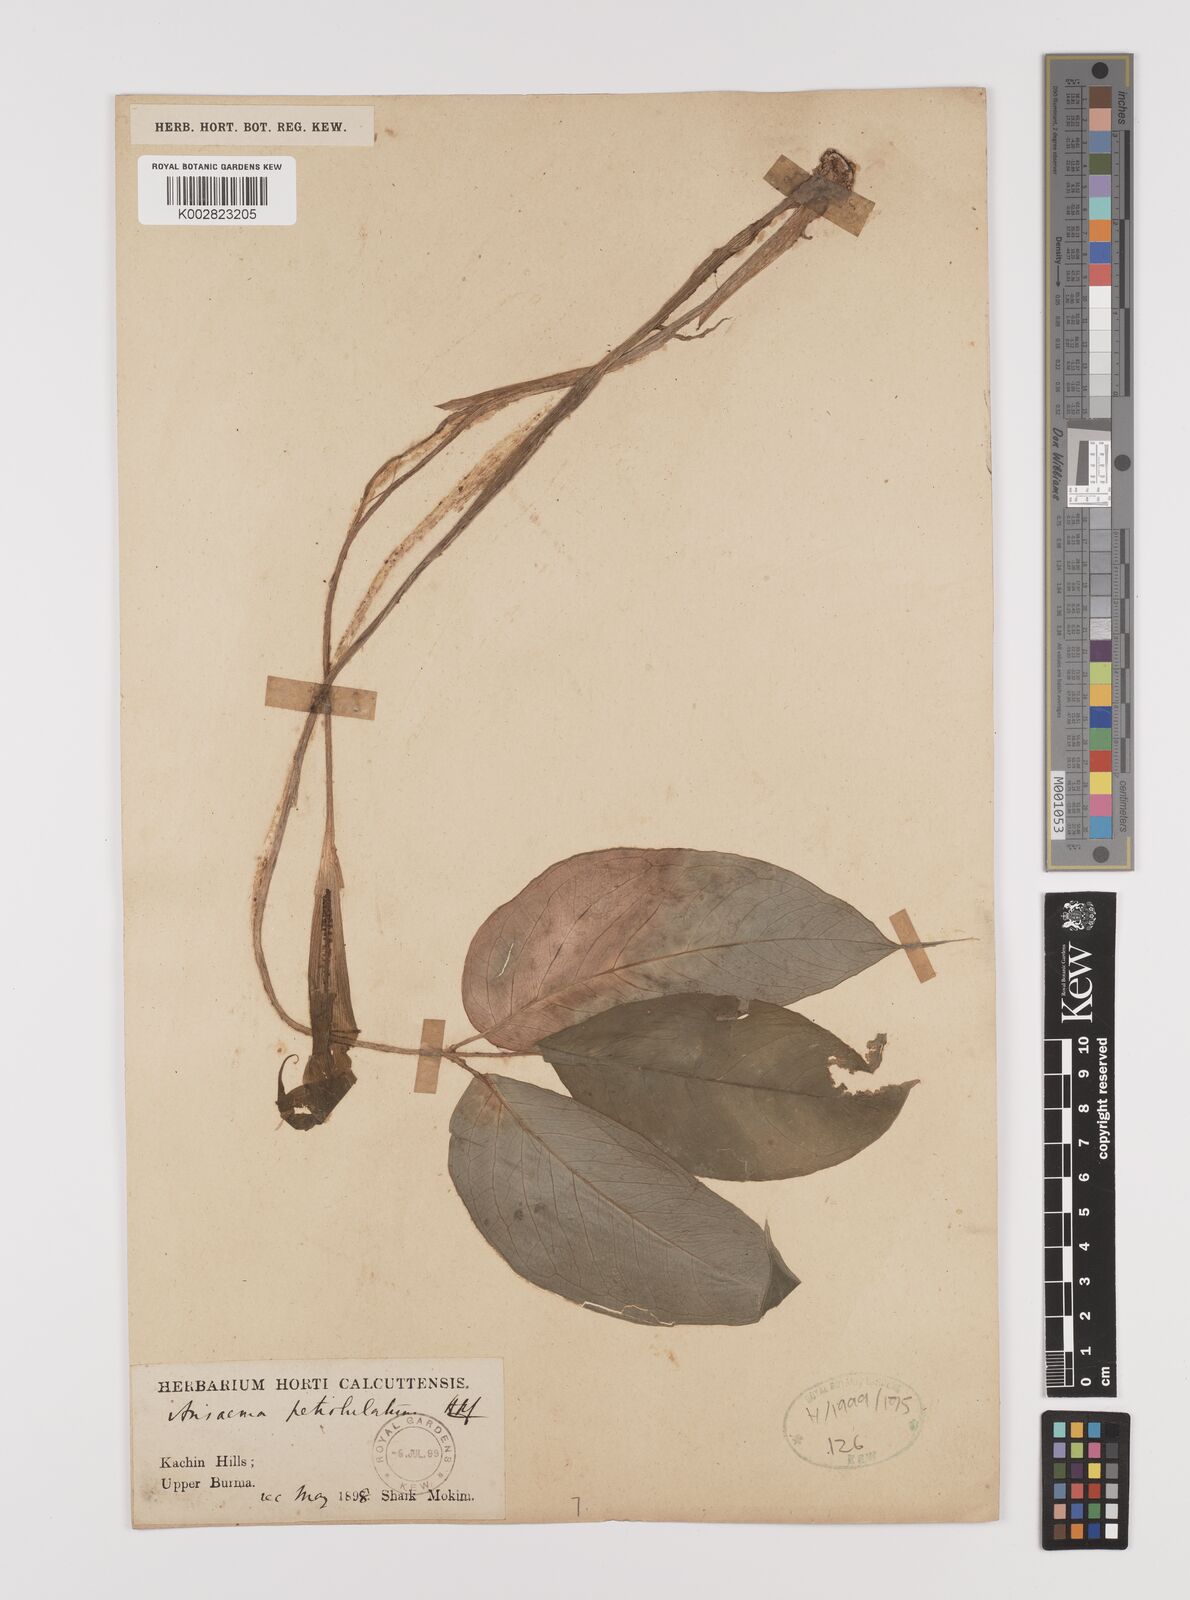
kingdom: Plantae
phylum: Tracheophyta
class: Liliopsida
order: Alismatales
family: Araceae
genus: Arisaema
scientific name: Arisaema petiolulatum
